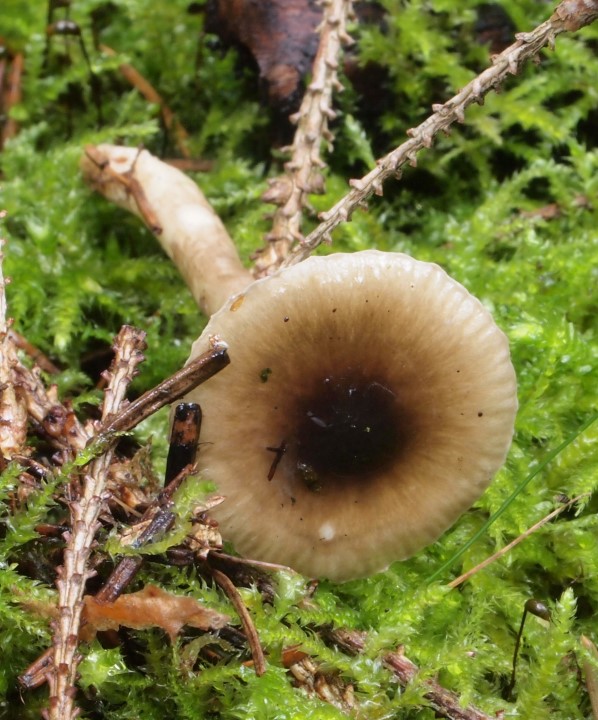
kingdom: Fungi
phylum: Basidiomycota
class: Agaricomycetes
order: Agaricales
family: Hygrophoraceae
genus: Hygrophorus
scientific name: Hygrophorus olivaceoalbus
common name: hvidbrun sneglehat
